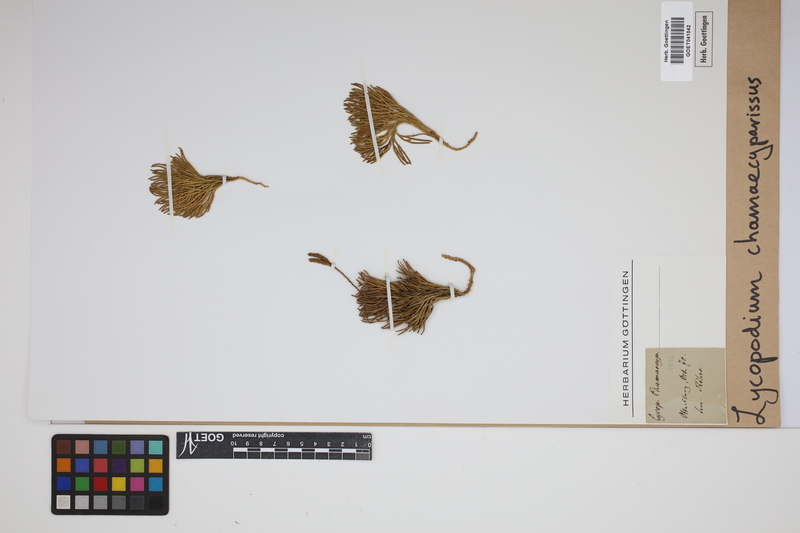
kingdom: Plantae
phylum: Tracheophyta
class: Lycopodiopsida
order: Lycopodiales
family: Lycopodiaceae
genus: Diphasiastrum
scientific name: Diphasiastrum tristachyum
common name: Blue ground-cedar
